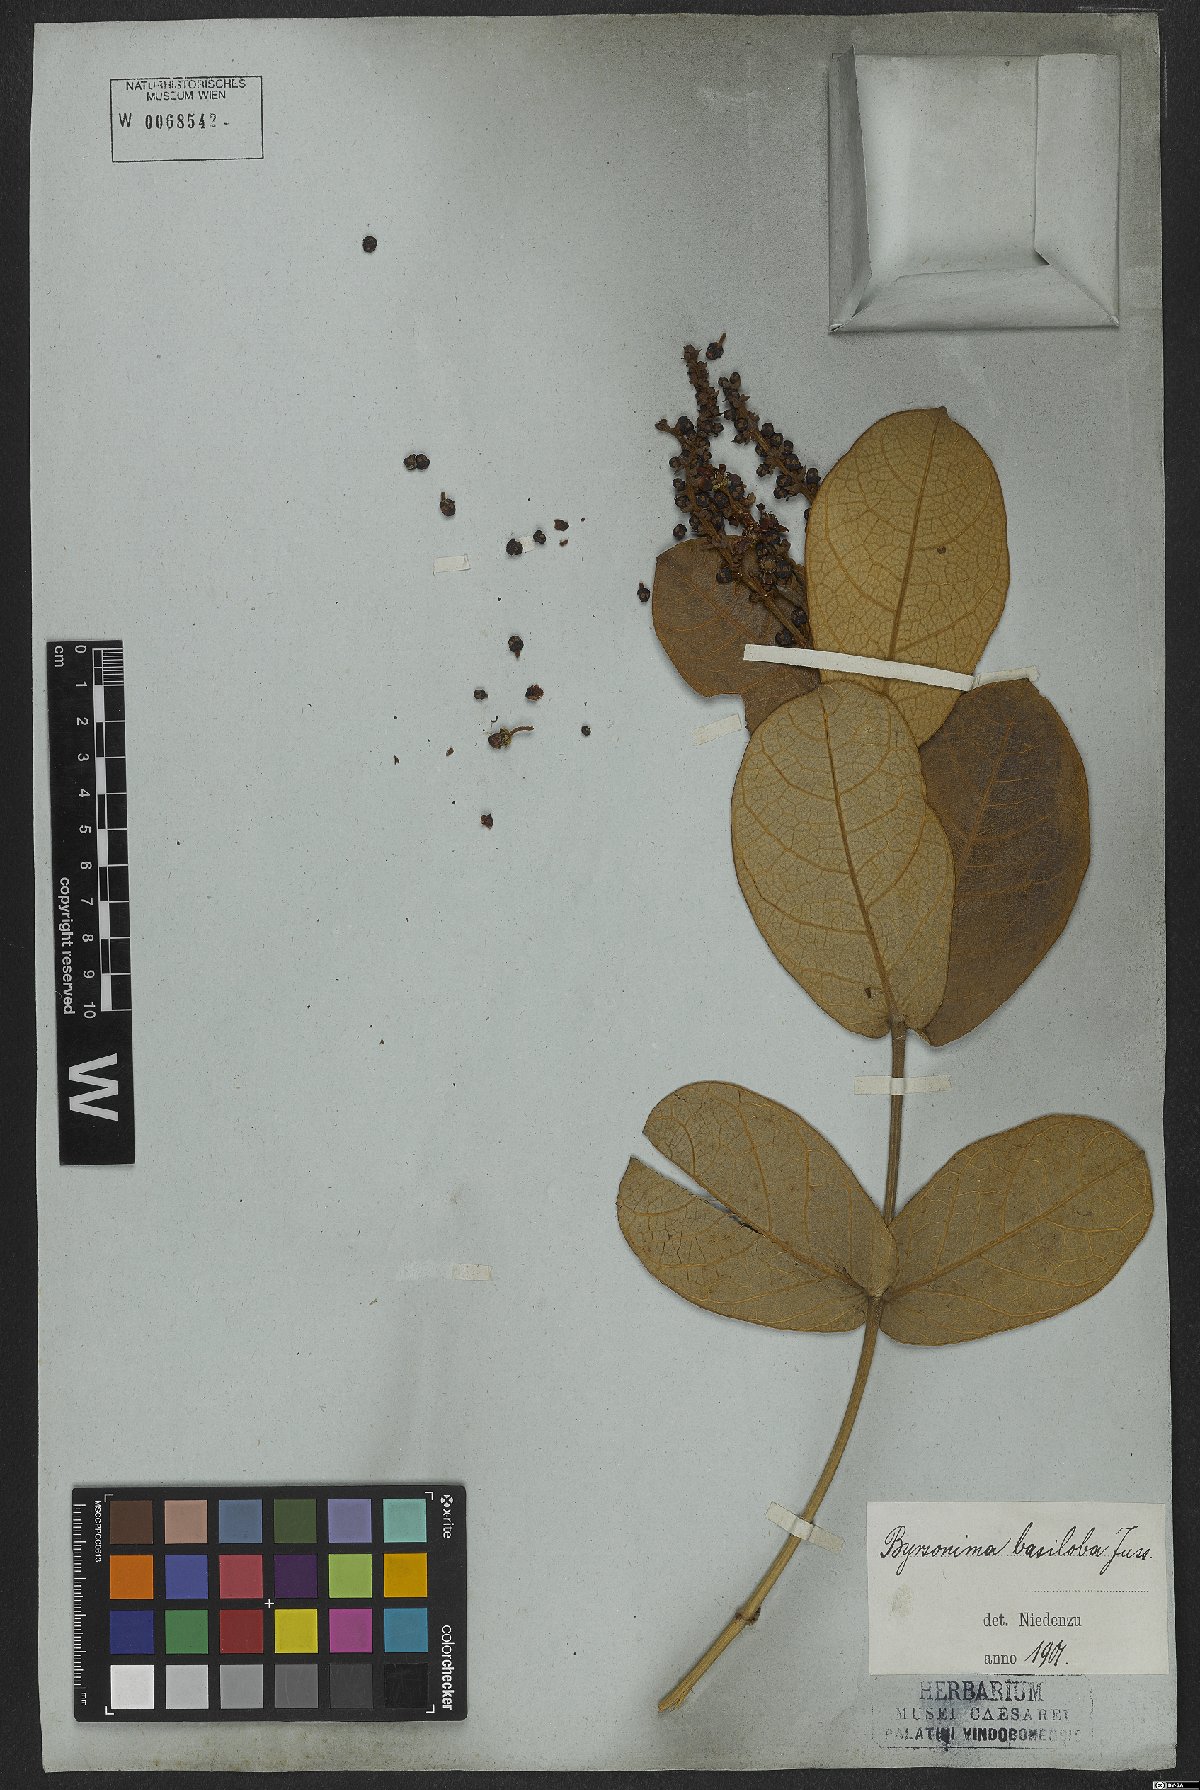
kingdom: Plantae
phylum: Tracheophyta
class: Magnoliopsida
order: Malpighiales
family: Malpighiaceae
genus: Byrsonima
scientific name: Byrsonima basiloba
